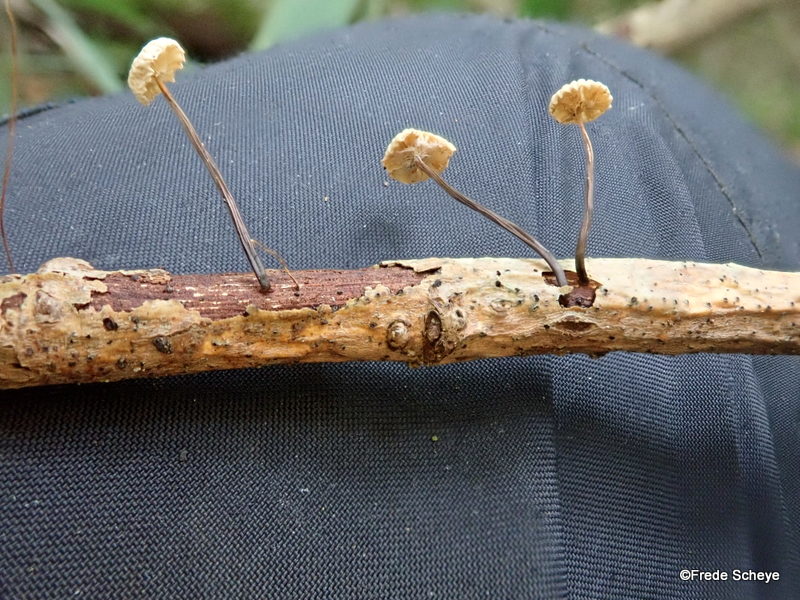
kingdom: Fungi
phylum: Basidiomycota
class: Agaricomycetes
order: Agaricales
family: Marasmiaceae
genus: Marasmius
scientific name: Marasmius rotula
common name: hjul-bruskhat
